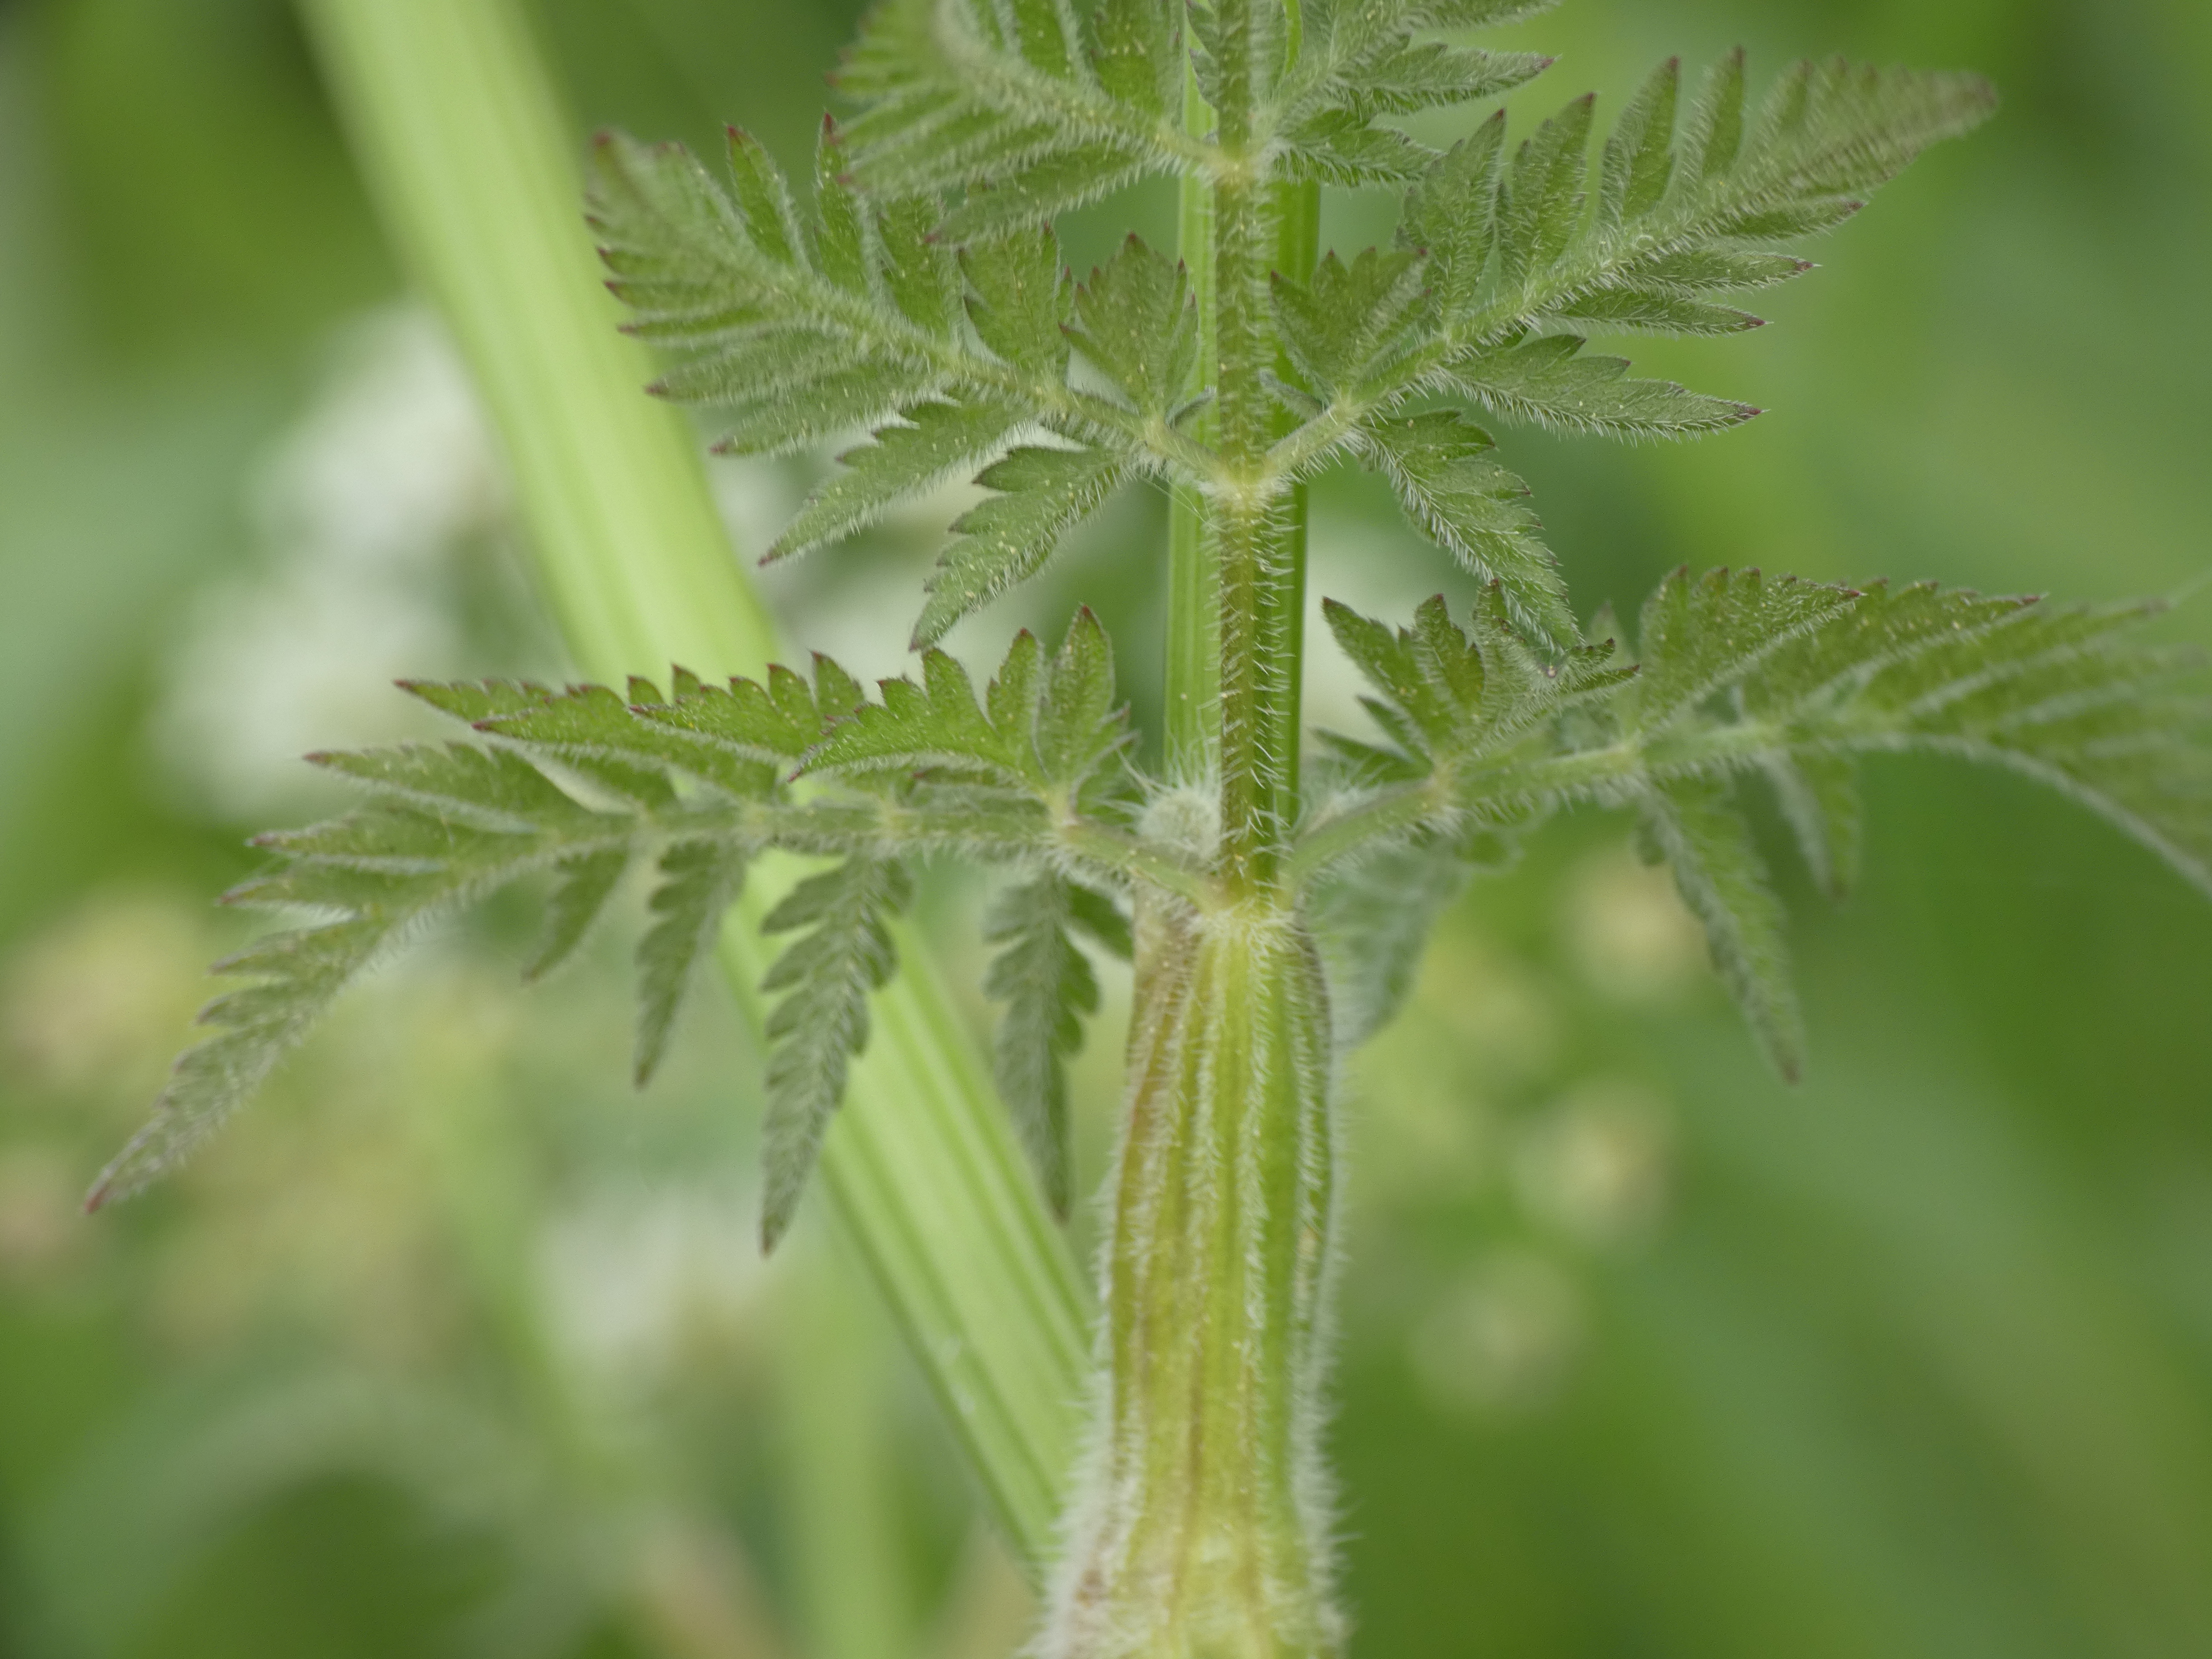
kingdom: Plantae
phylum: Tracheophyta
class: Magnoliopsida
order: Apiales
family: Apiaceae
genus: Anthriscus
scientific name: Anthriscus sylvestris
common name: Vild kørvel
